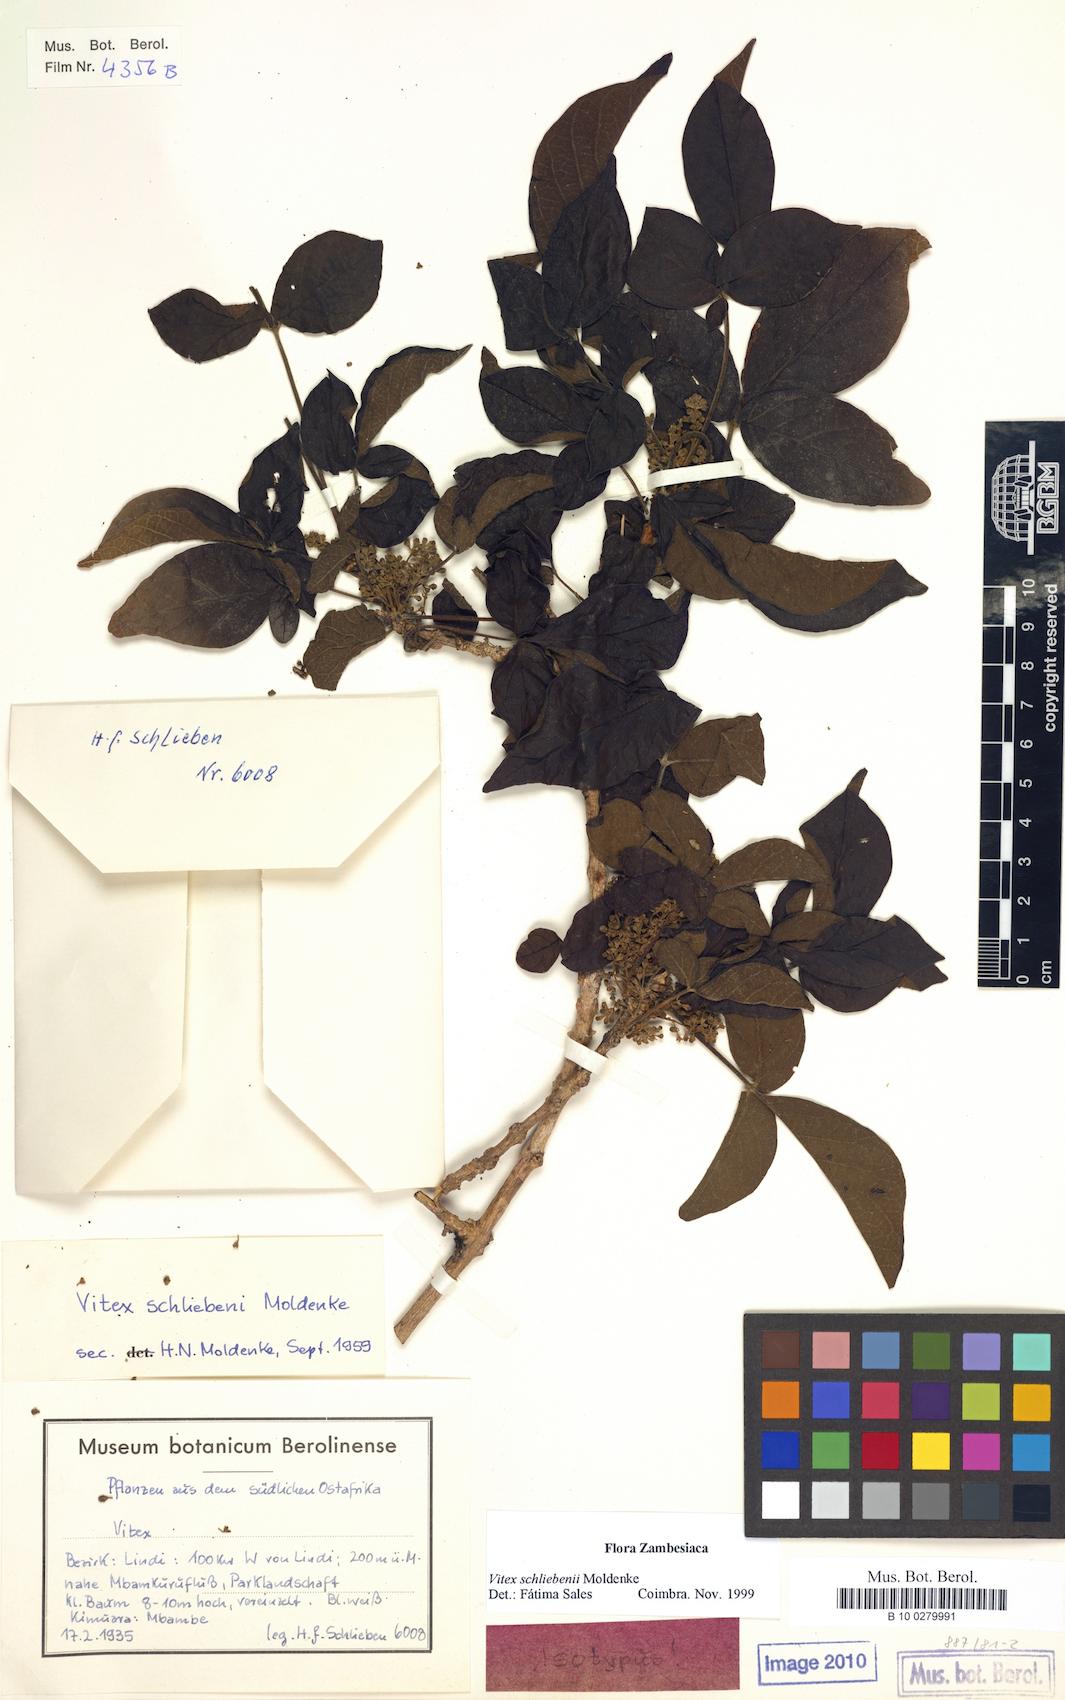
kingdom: Plantae
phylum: Tracheophyta
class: Magnoliopsida
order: Lamiales
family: Lamiaceae
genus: Vitex
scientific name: Vitex schliebenii
